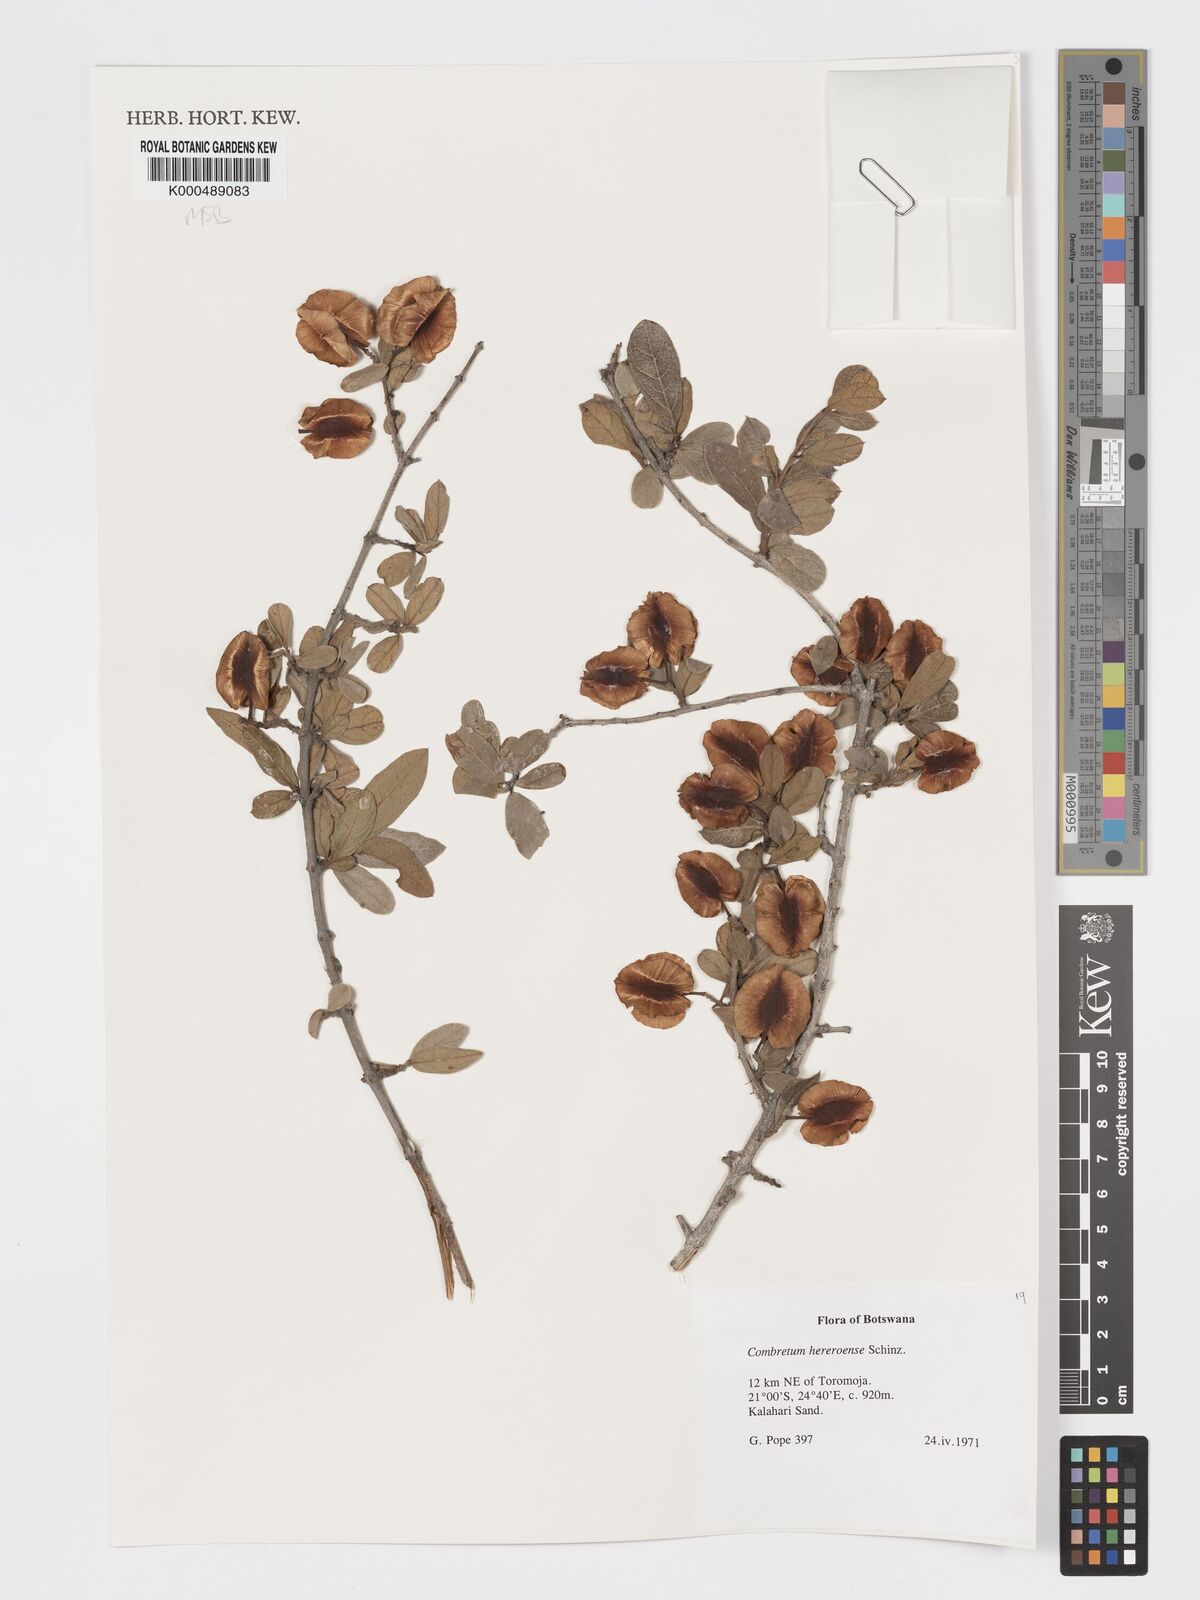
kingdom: Plantae
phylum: Tracheophyta
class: Magnoliopsida
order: Myrtales
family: Combretaceae
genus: Combretum
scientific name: Combretum hereroense
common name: Russet bushwillow
